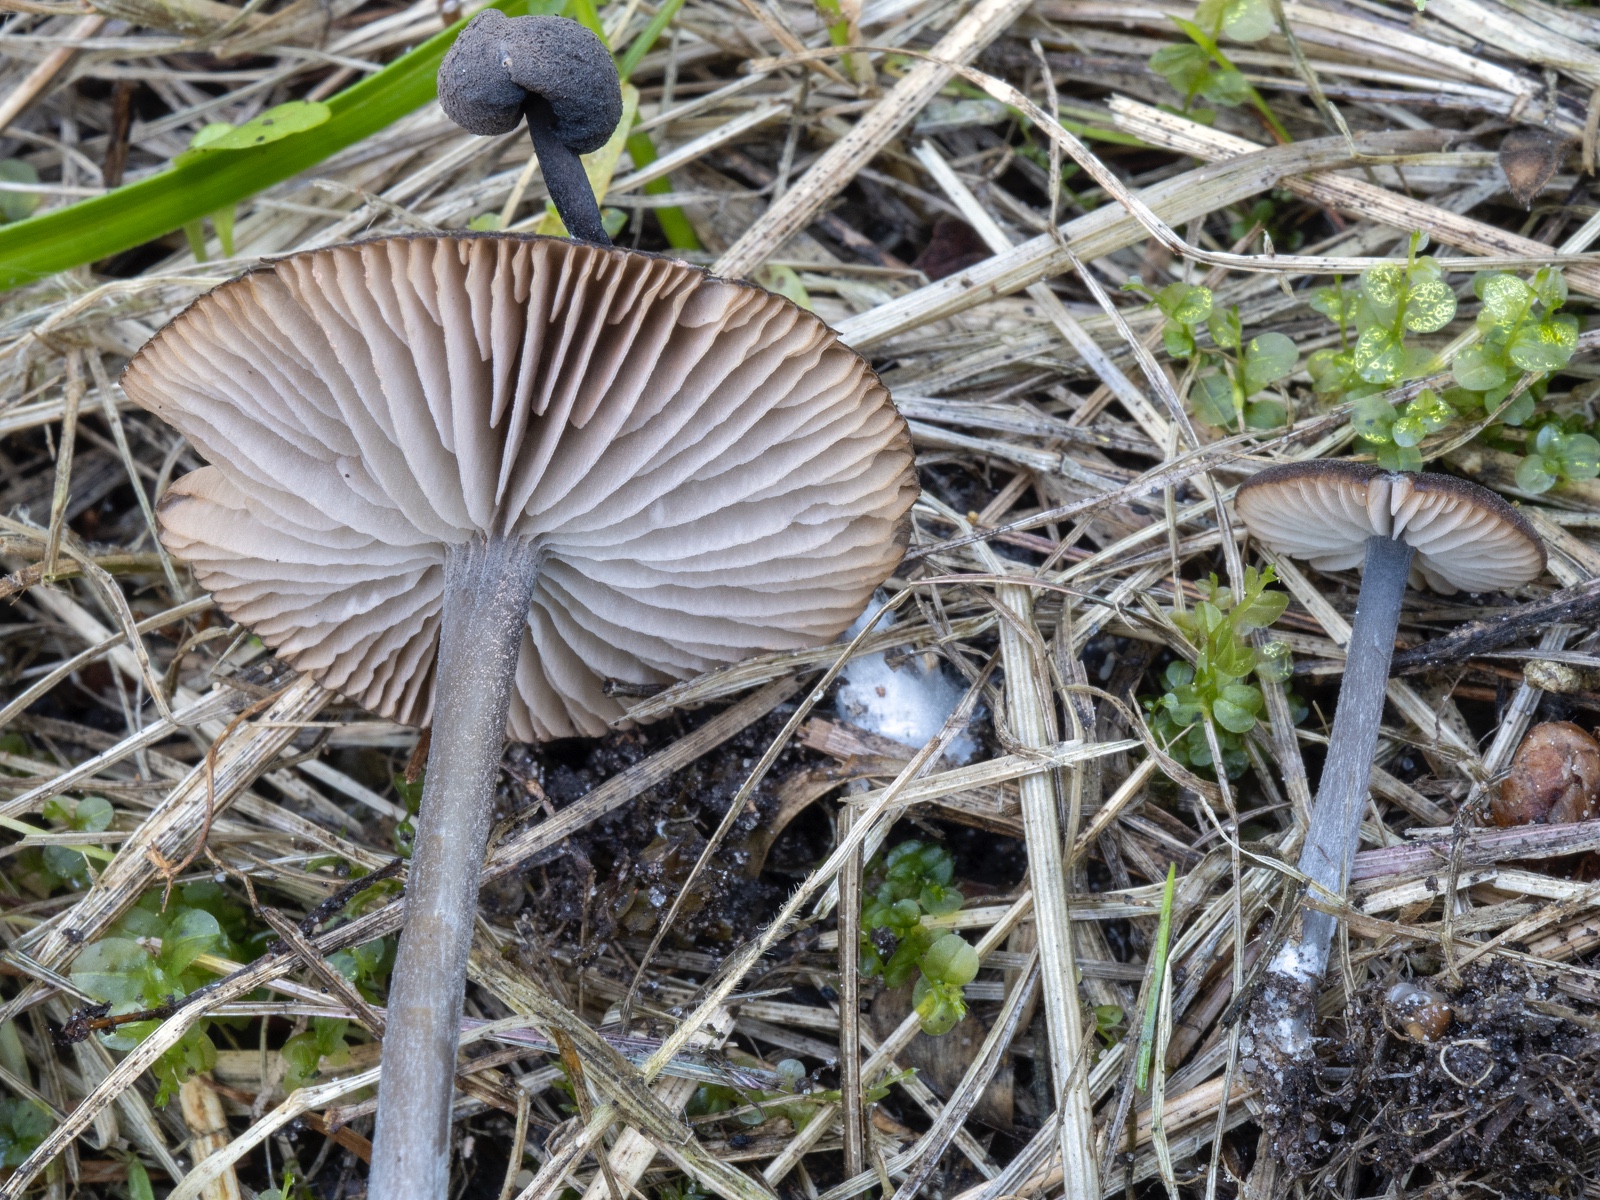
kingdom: Fungi
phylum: Basidiomycota
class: Agaricomycetes
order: Agaricales
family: Entolomataceae
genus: Entoloma
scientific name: Entoloma chalybeum
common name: blåbladet rødblad
